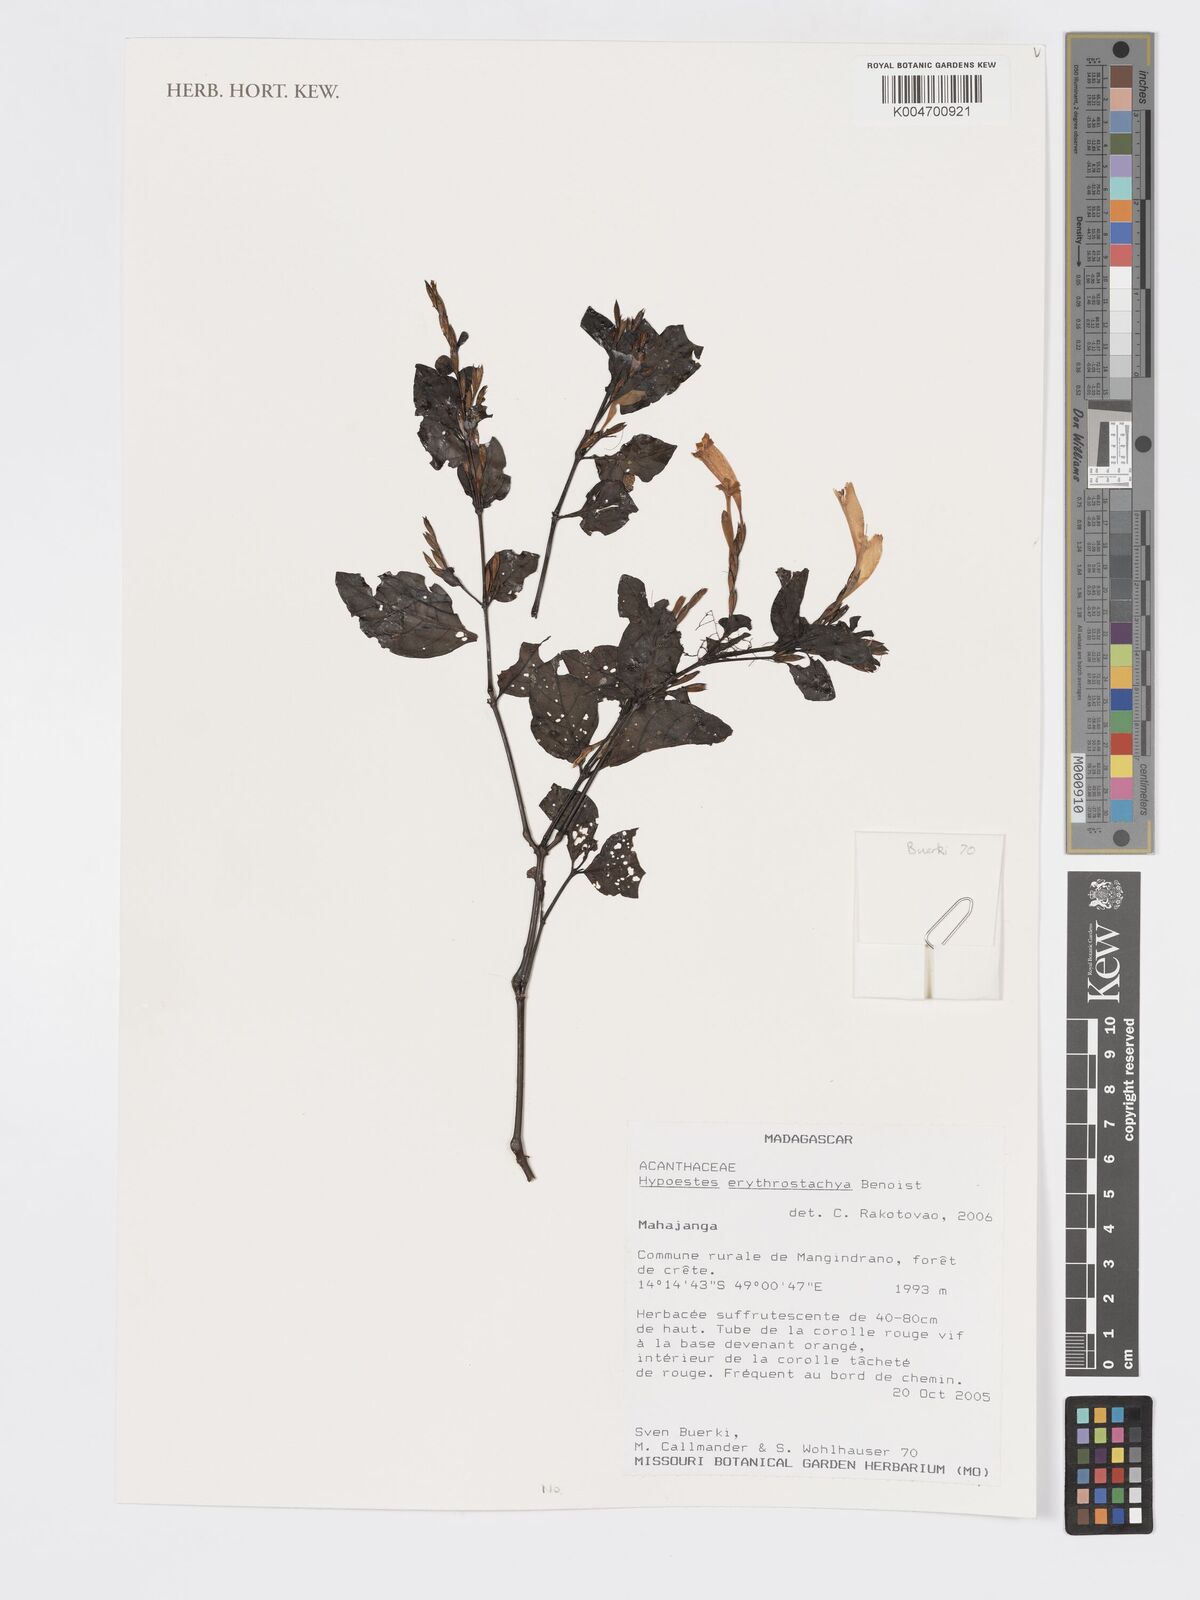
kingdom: Plantae
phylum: Tracheophyta
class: Magnoliopsida
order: Lamiales
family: Acanthaceae
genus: Hypoestes
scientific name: Hypoestes
